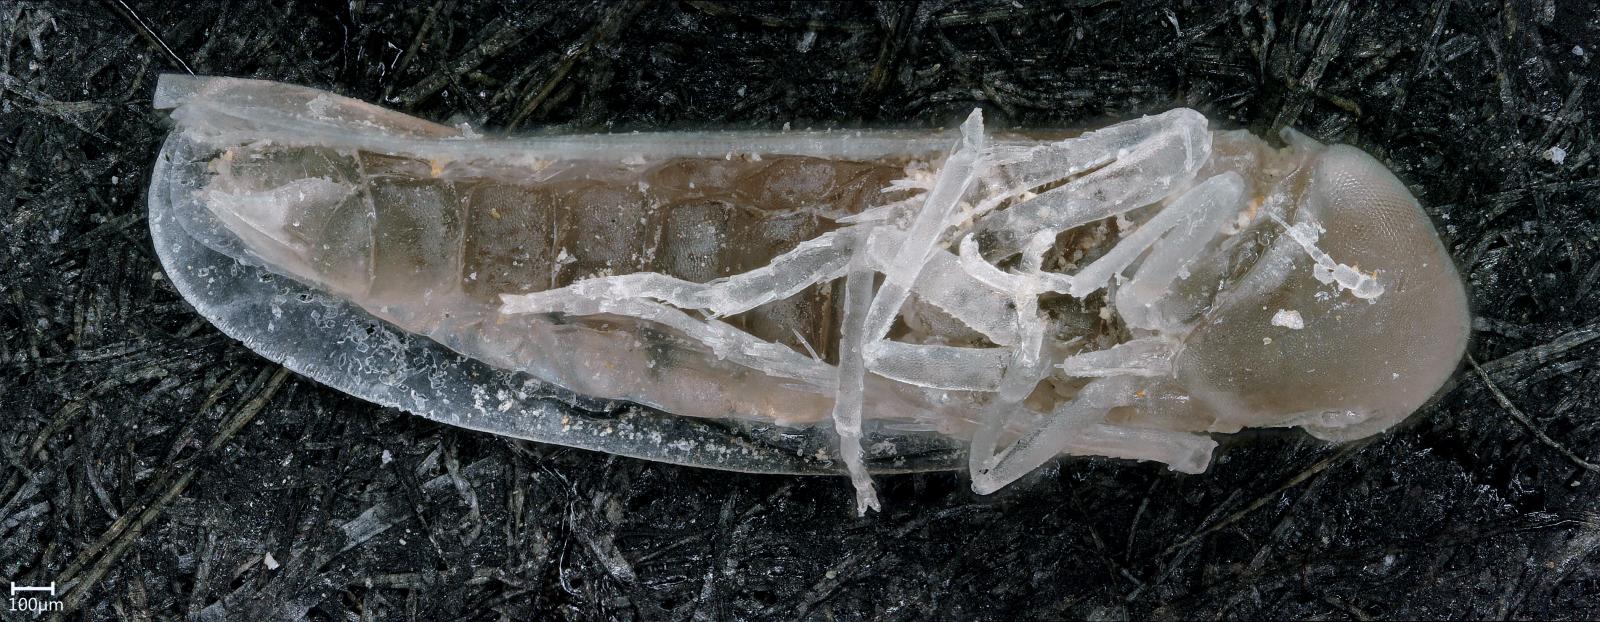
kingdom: Animalia
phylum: Arthropoda
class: Insecta
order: Hemiptera
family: Cicadellidae
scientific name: Cicadellidae
